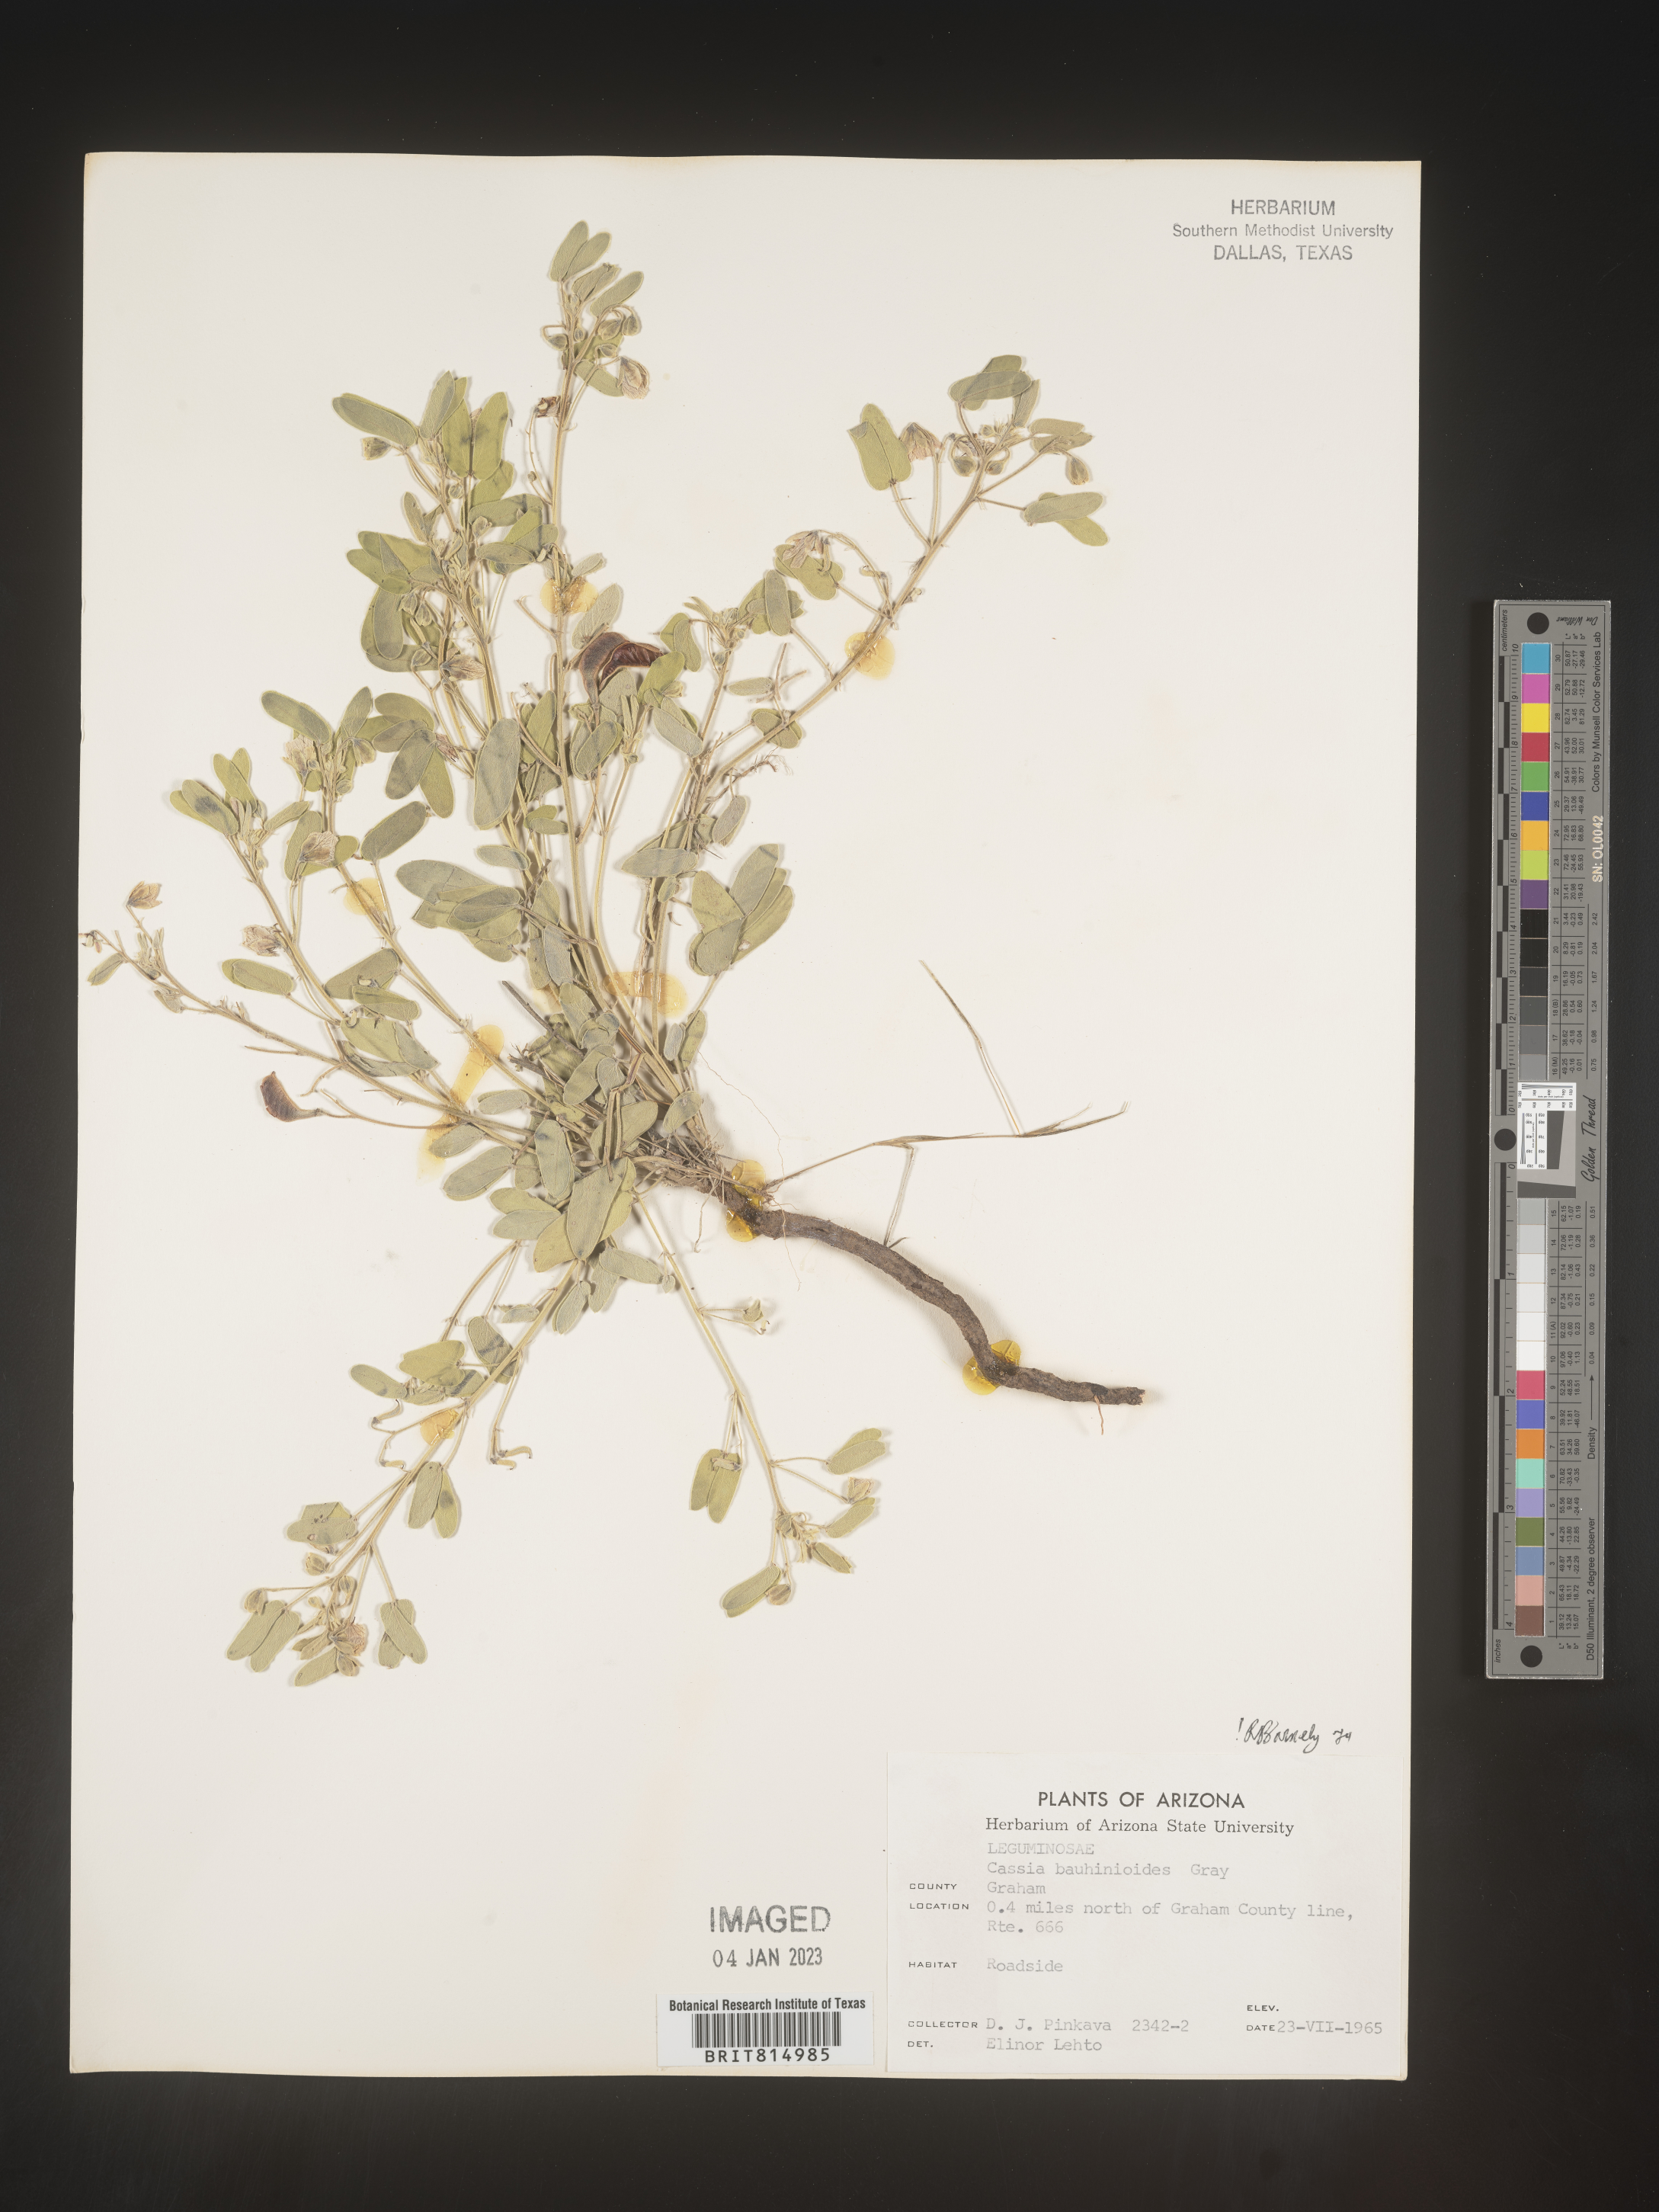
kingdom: Plantae
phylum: Tracheophyta
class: Magnoliopsida
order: Fabales
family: Fabaceae
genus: Senna
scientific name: Senna bauhinioides
